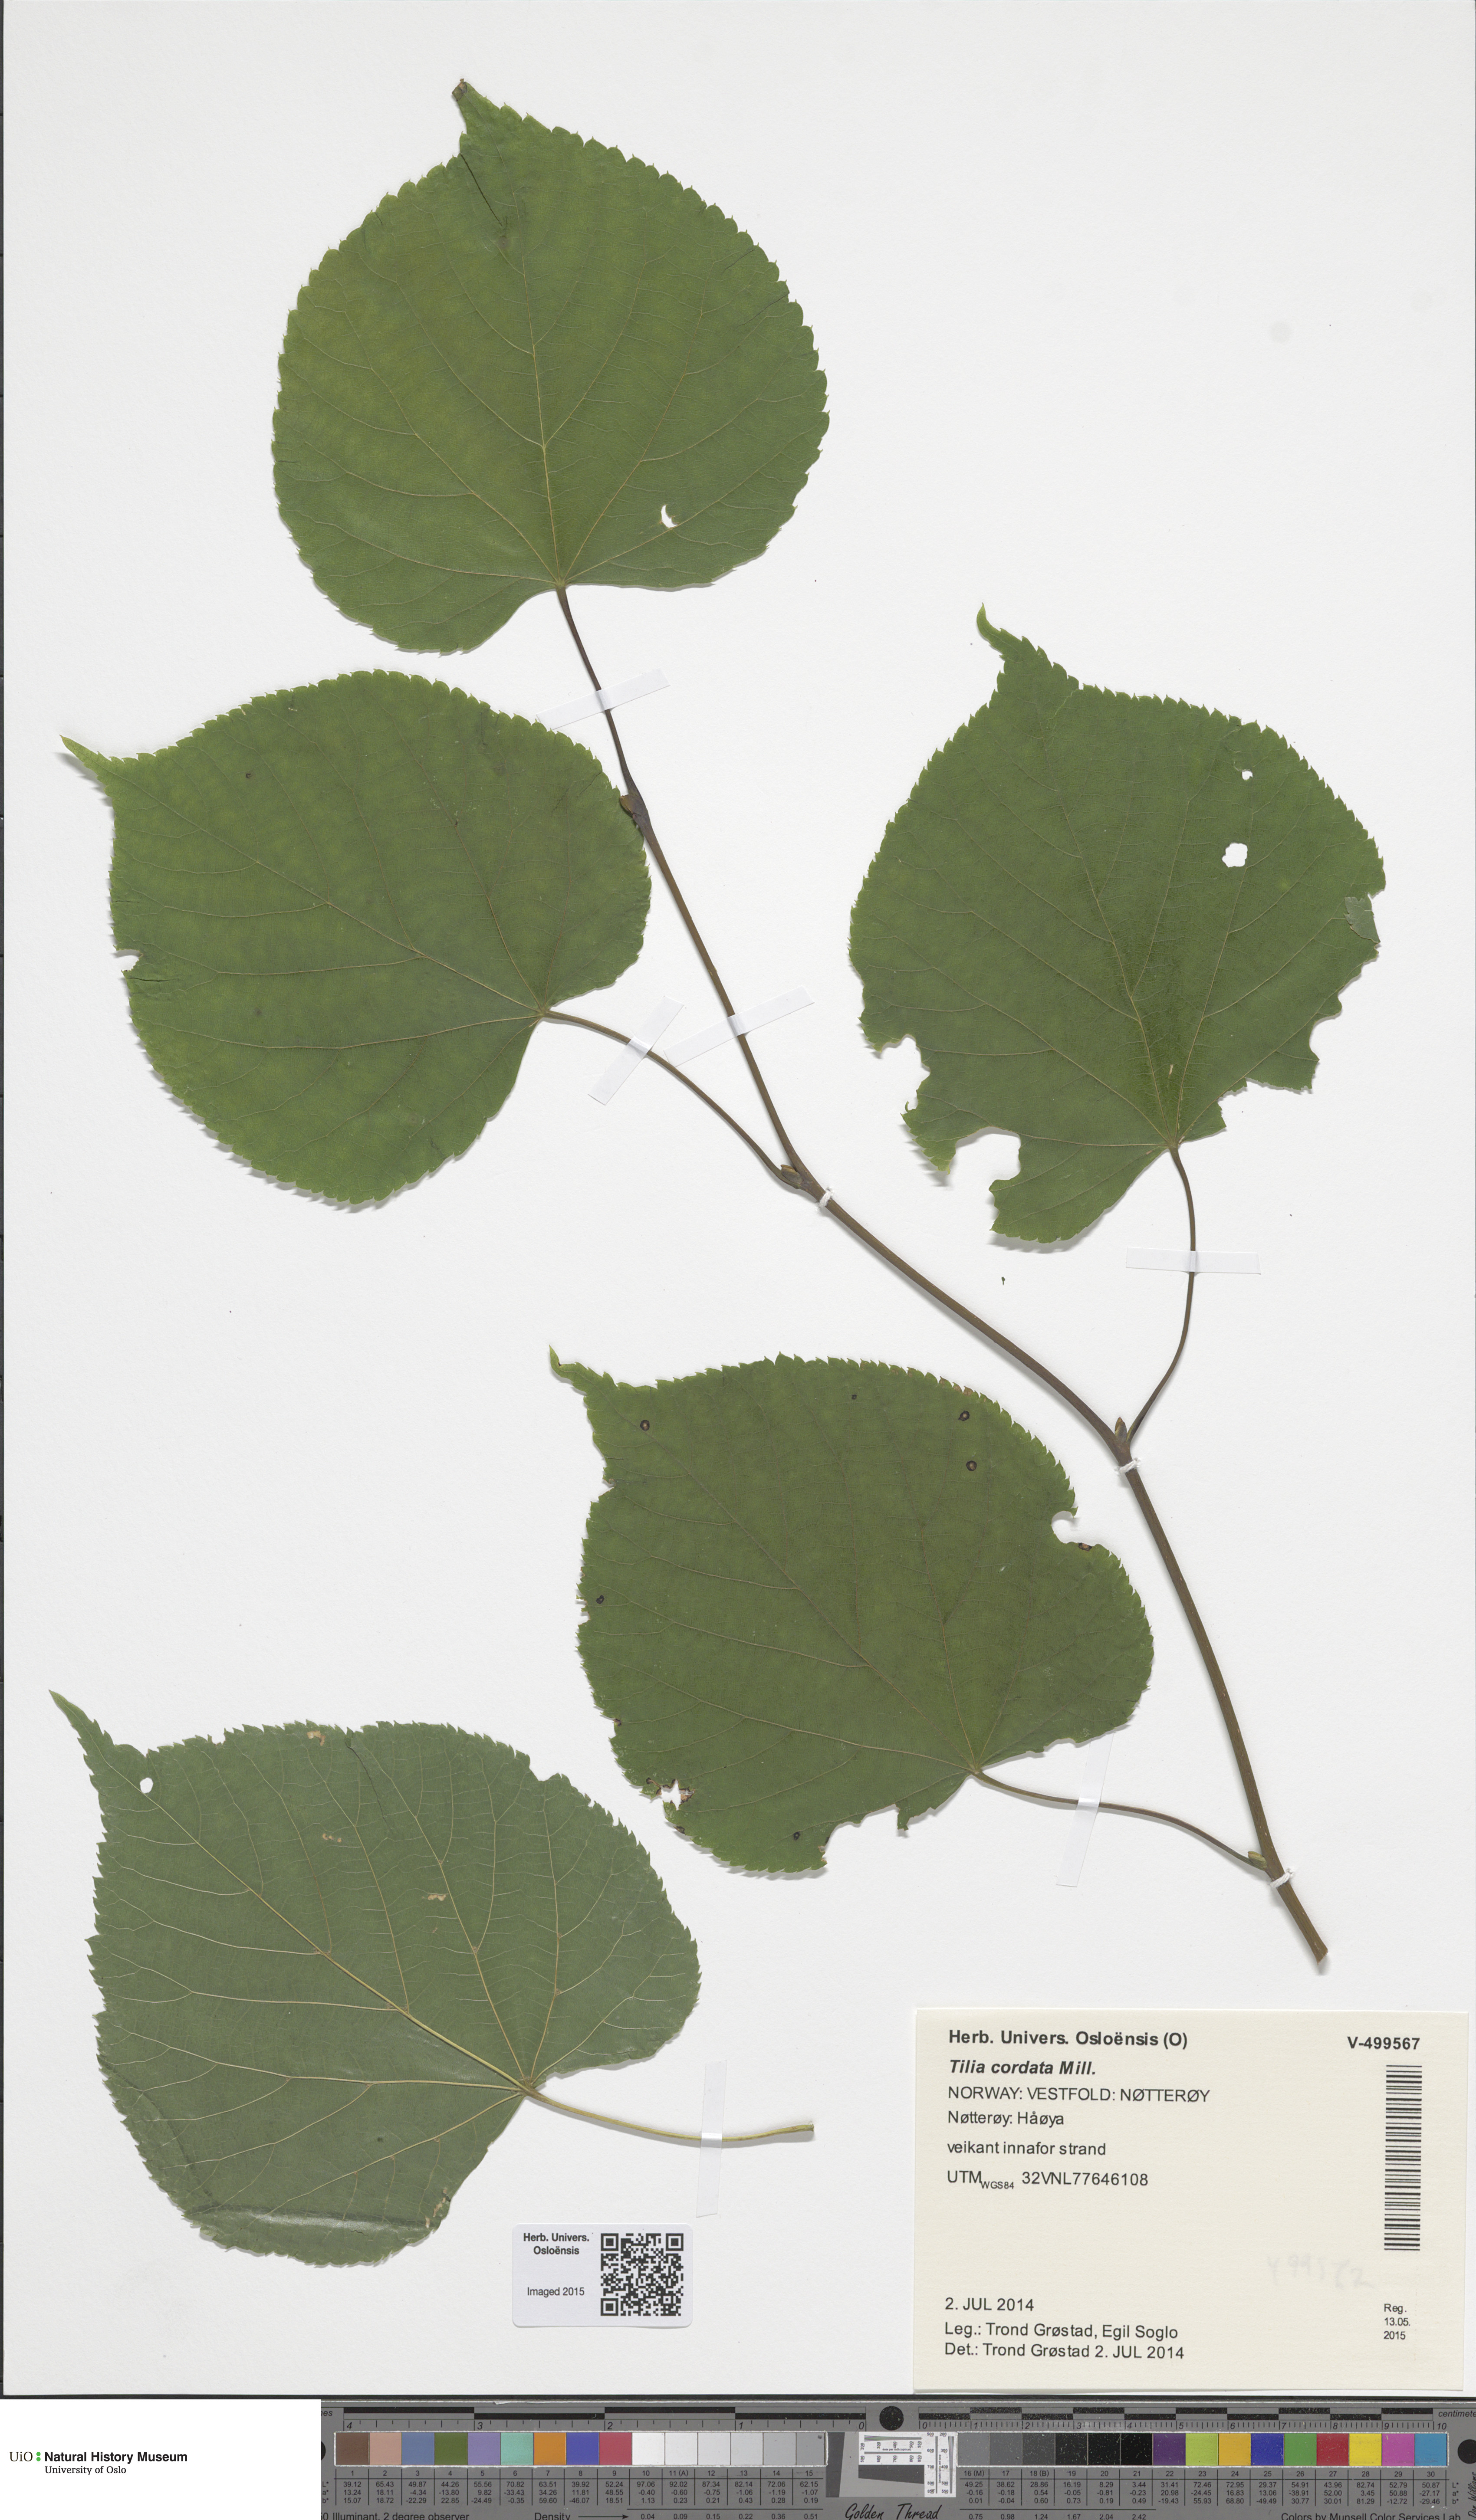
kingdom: Plantae
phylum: Tracheophyta
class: Magnoliopsida
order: Malvales
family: Malvaceae
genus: Tilia
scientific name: Tilia cordata
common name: Small-leaved lime
